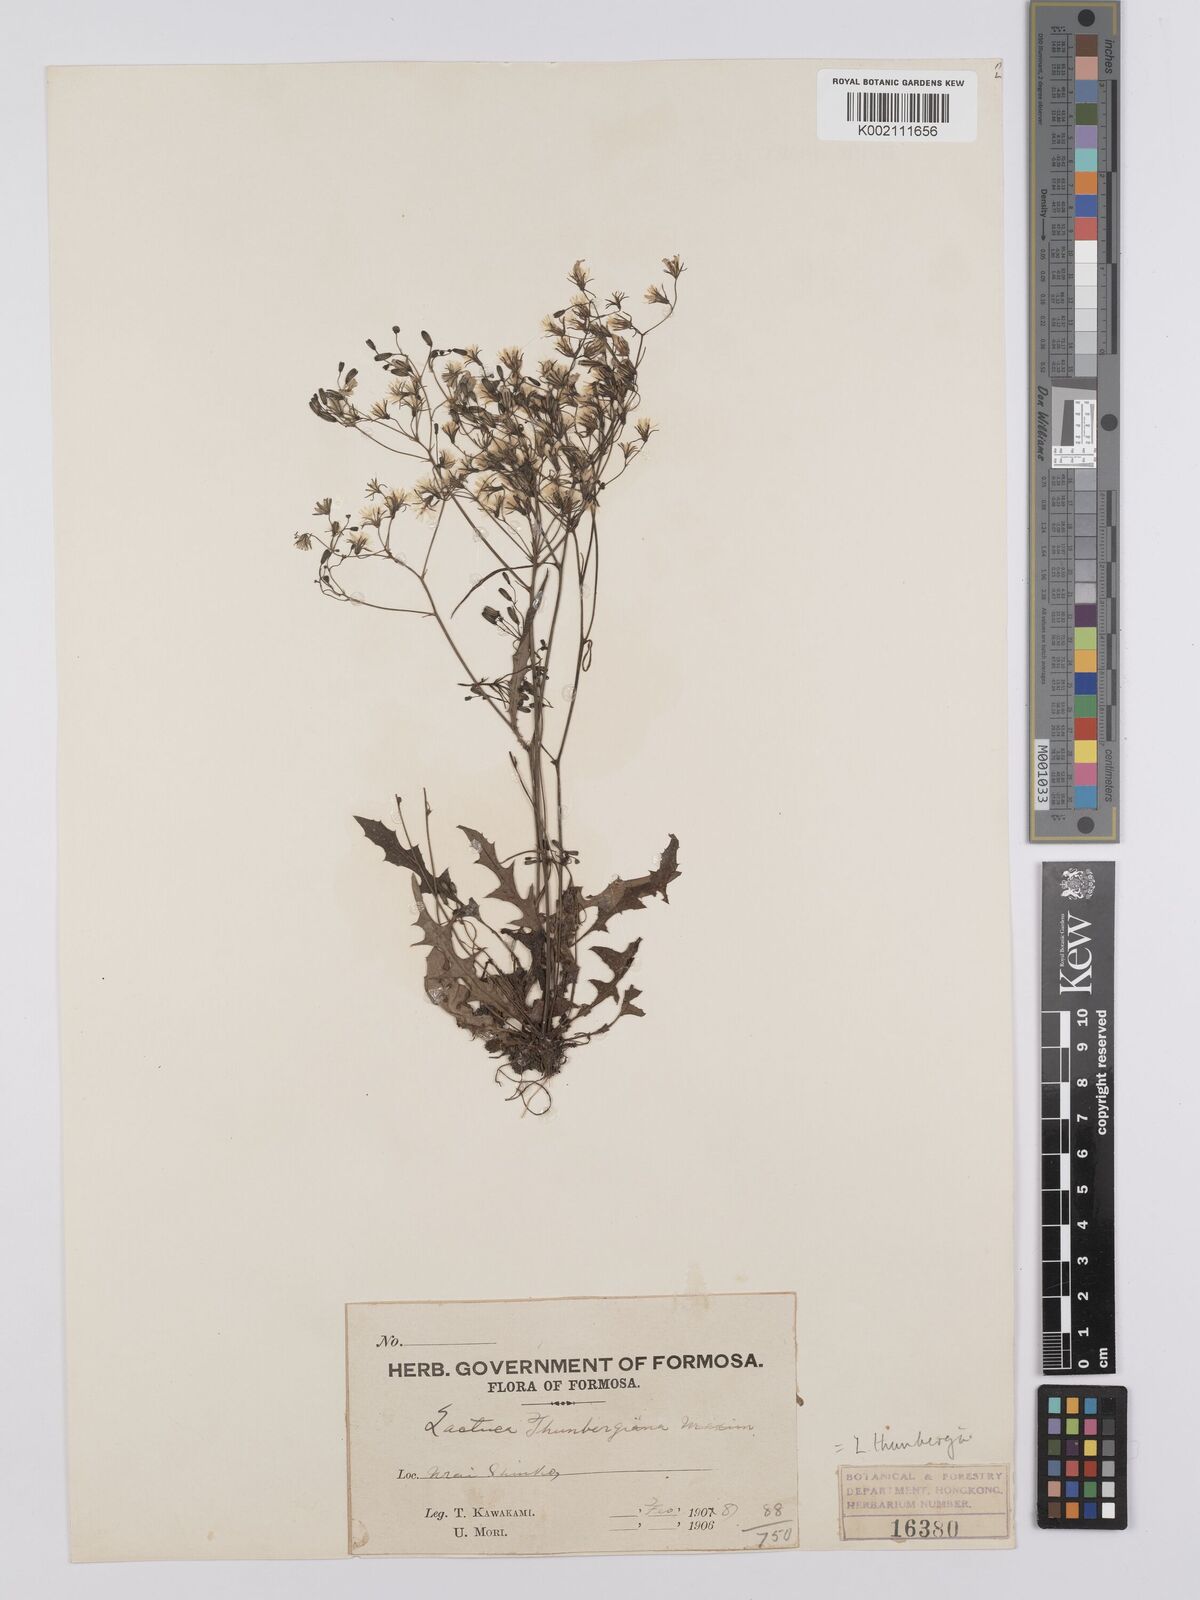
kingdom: Plantae
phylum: Tracheophyta
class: Magnoliopsida
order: Asterales
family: Asteraceae
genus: Ixeridium
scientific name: Ixeridium dentatum
